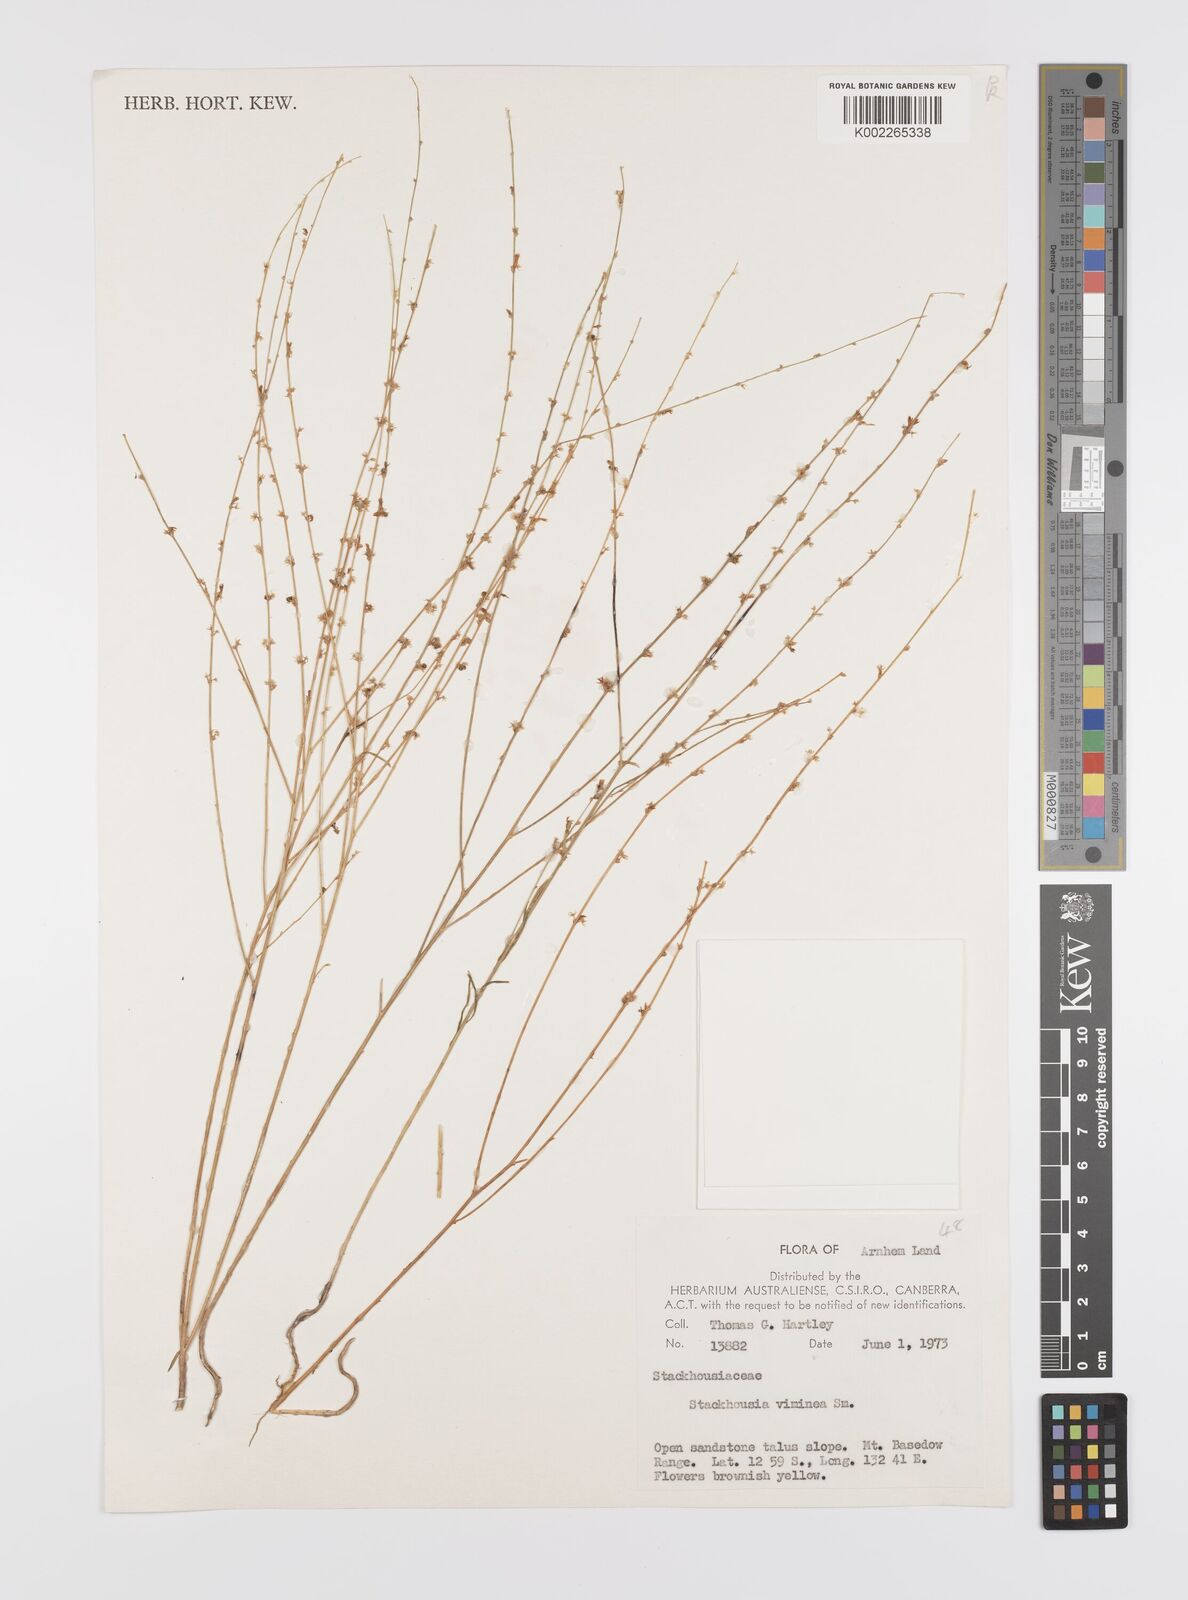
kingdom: Plantae
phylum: Tracheophyta
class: Magnoliopsida
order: Celastrales
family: Celastraceae
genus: Stackhousia
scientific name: Stackhousia viminea
